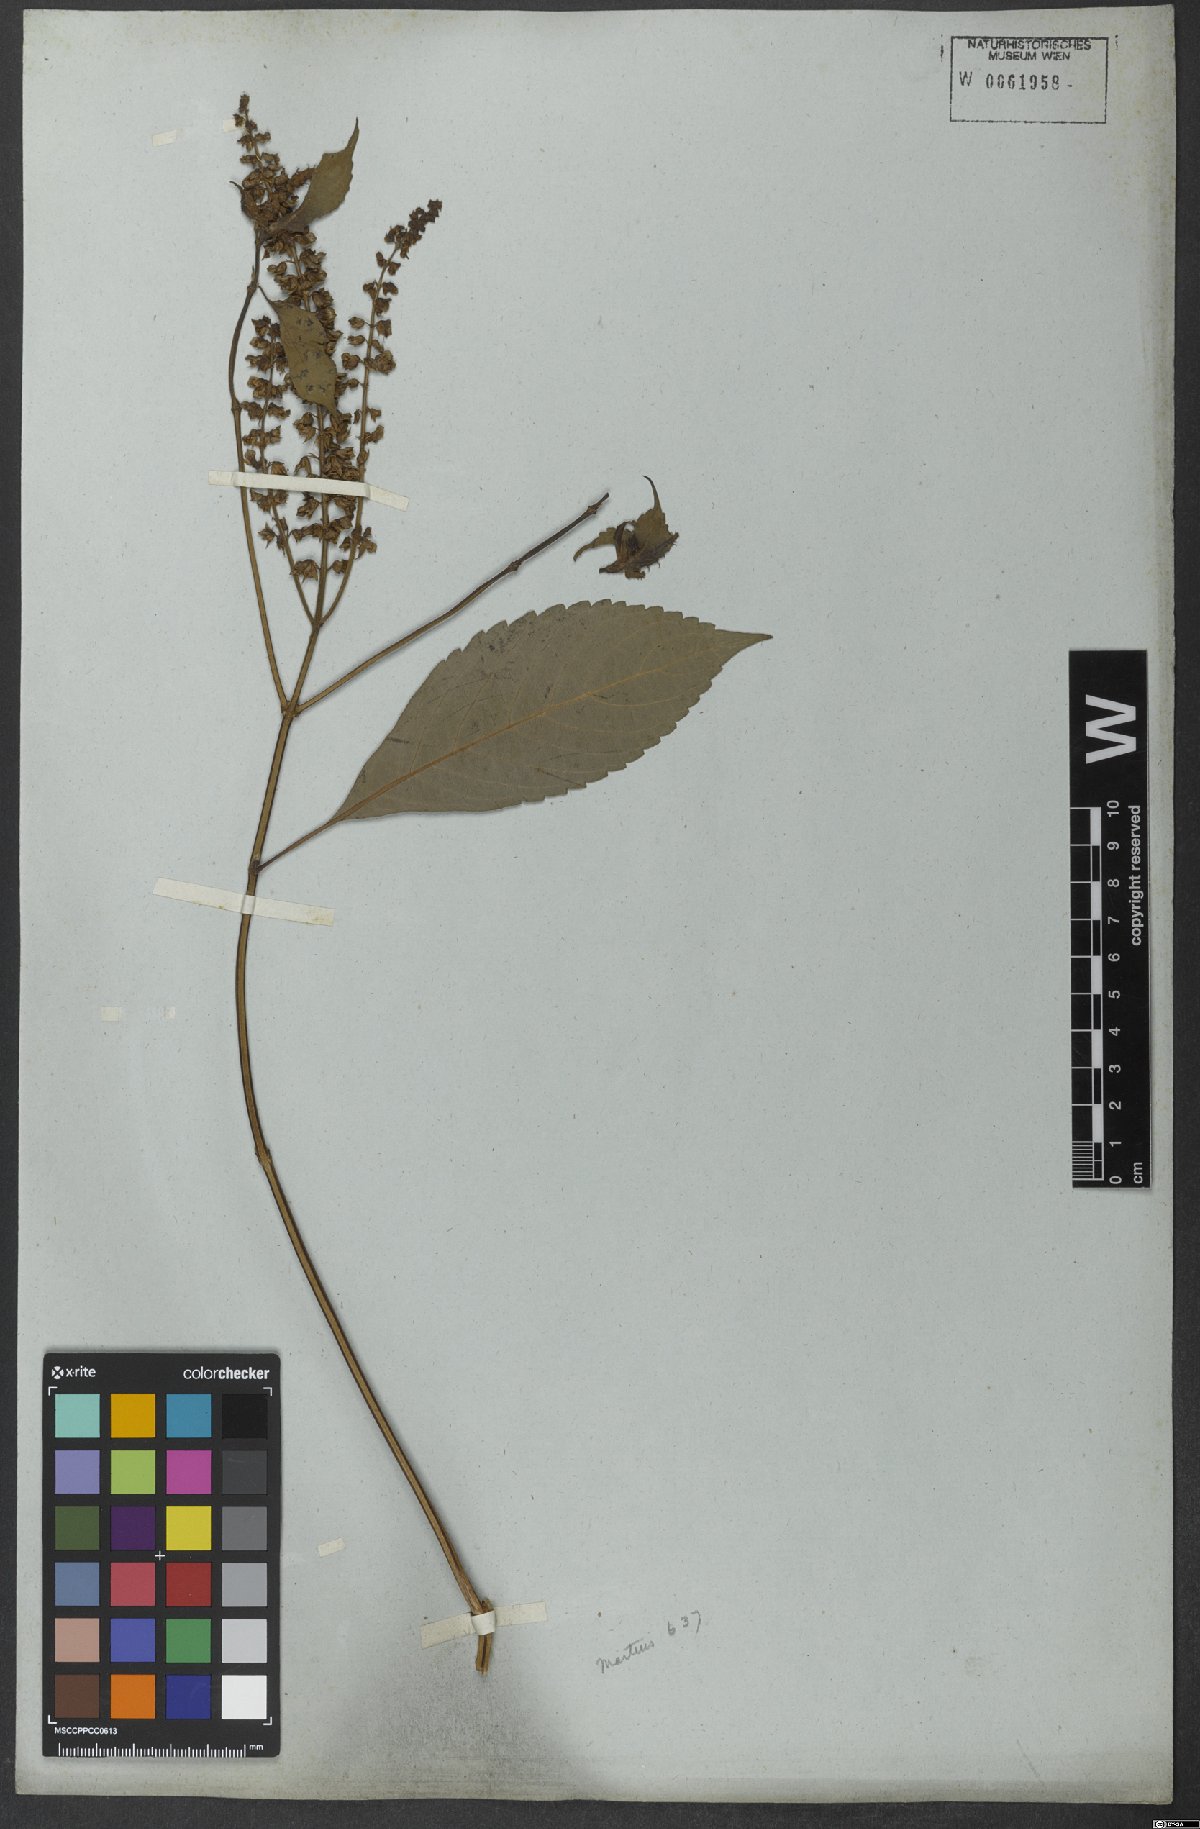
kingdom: Plantae
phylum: Tracheophyta
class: Magnoliopsida
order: Lamiales
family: Lamiaceae
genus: Ocimum
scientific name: Ocimum gratissimum
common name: African basil
